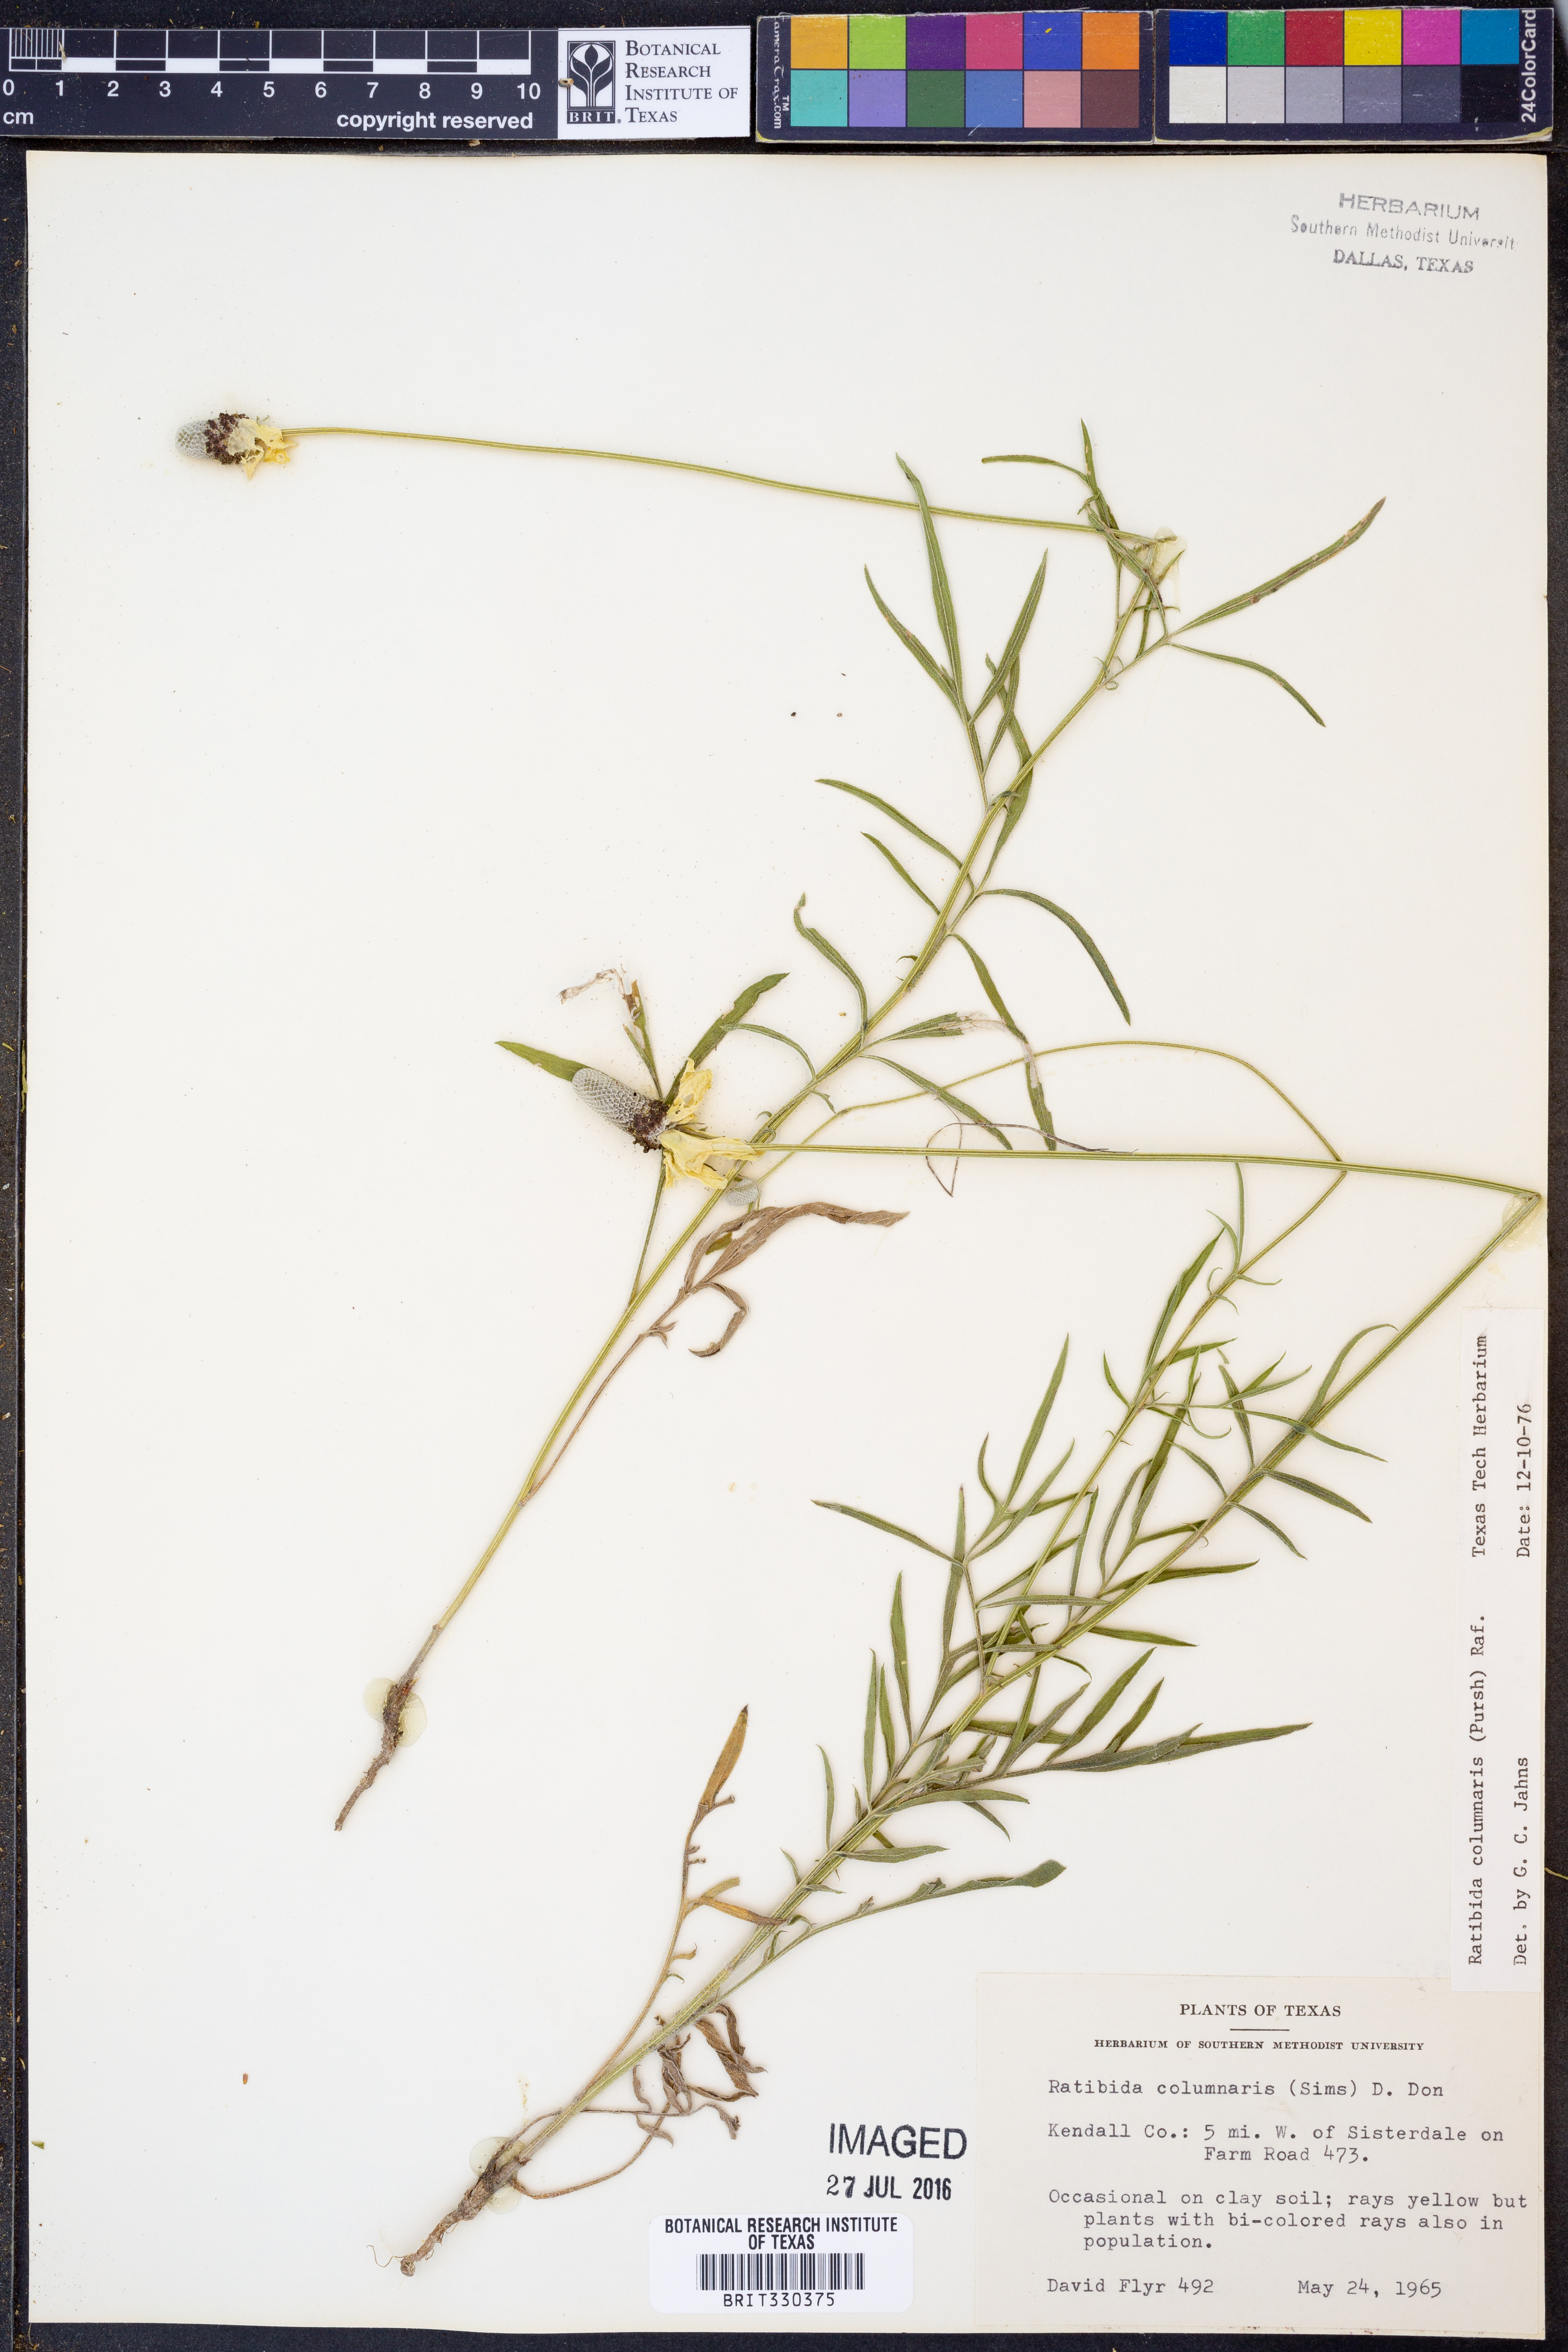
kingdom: Plantae
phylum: Tracheophyta
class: Magnoliopsida
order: Asterales
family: Asteraceae
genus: Ratibida
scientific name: Ratibida columnifera
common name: Prairie coneflower
